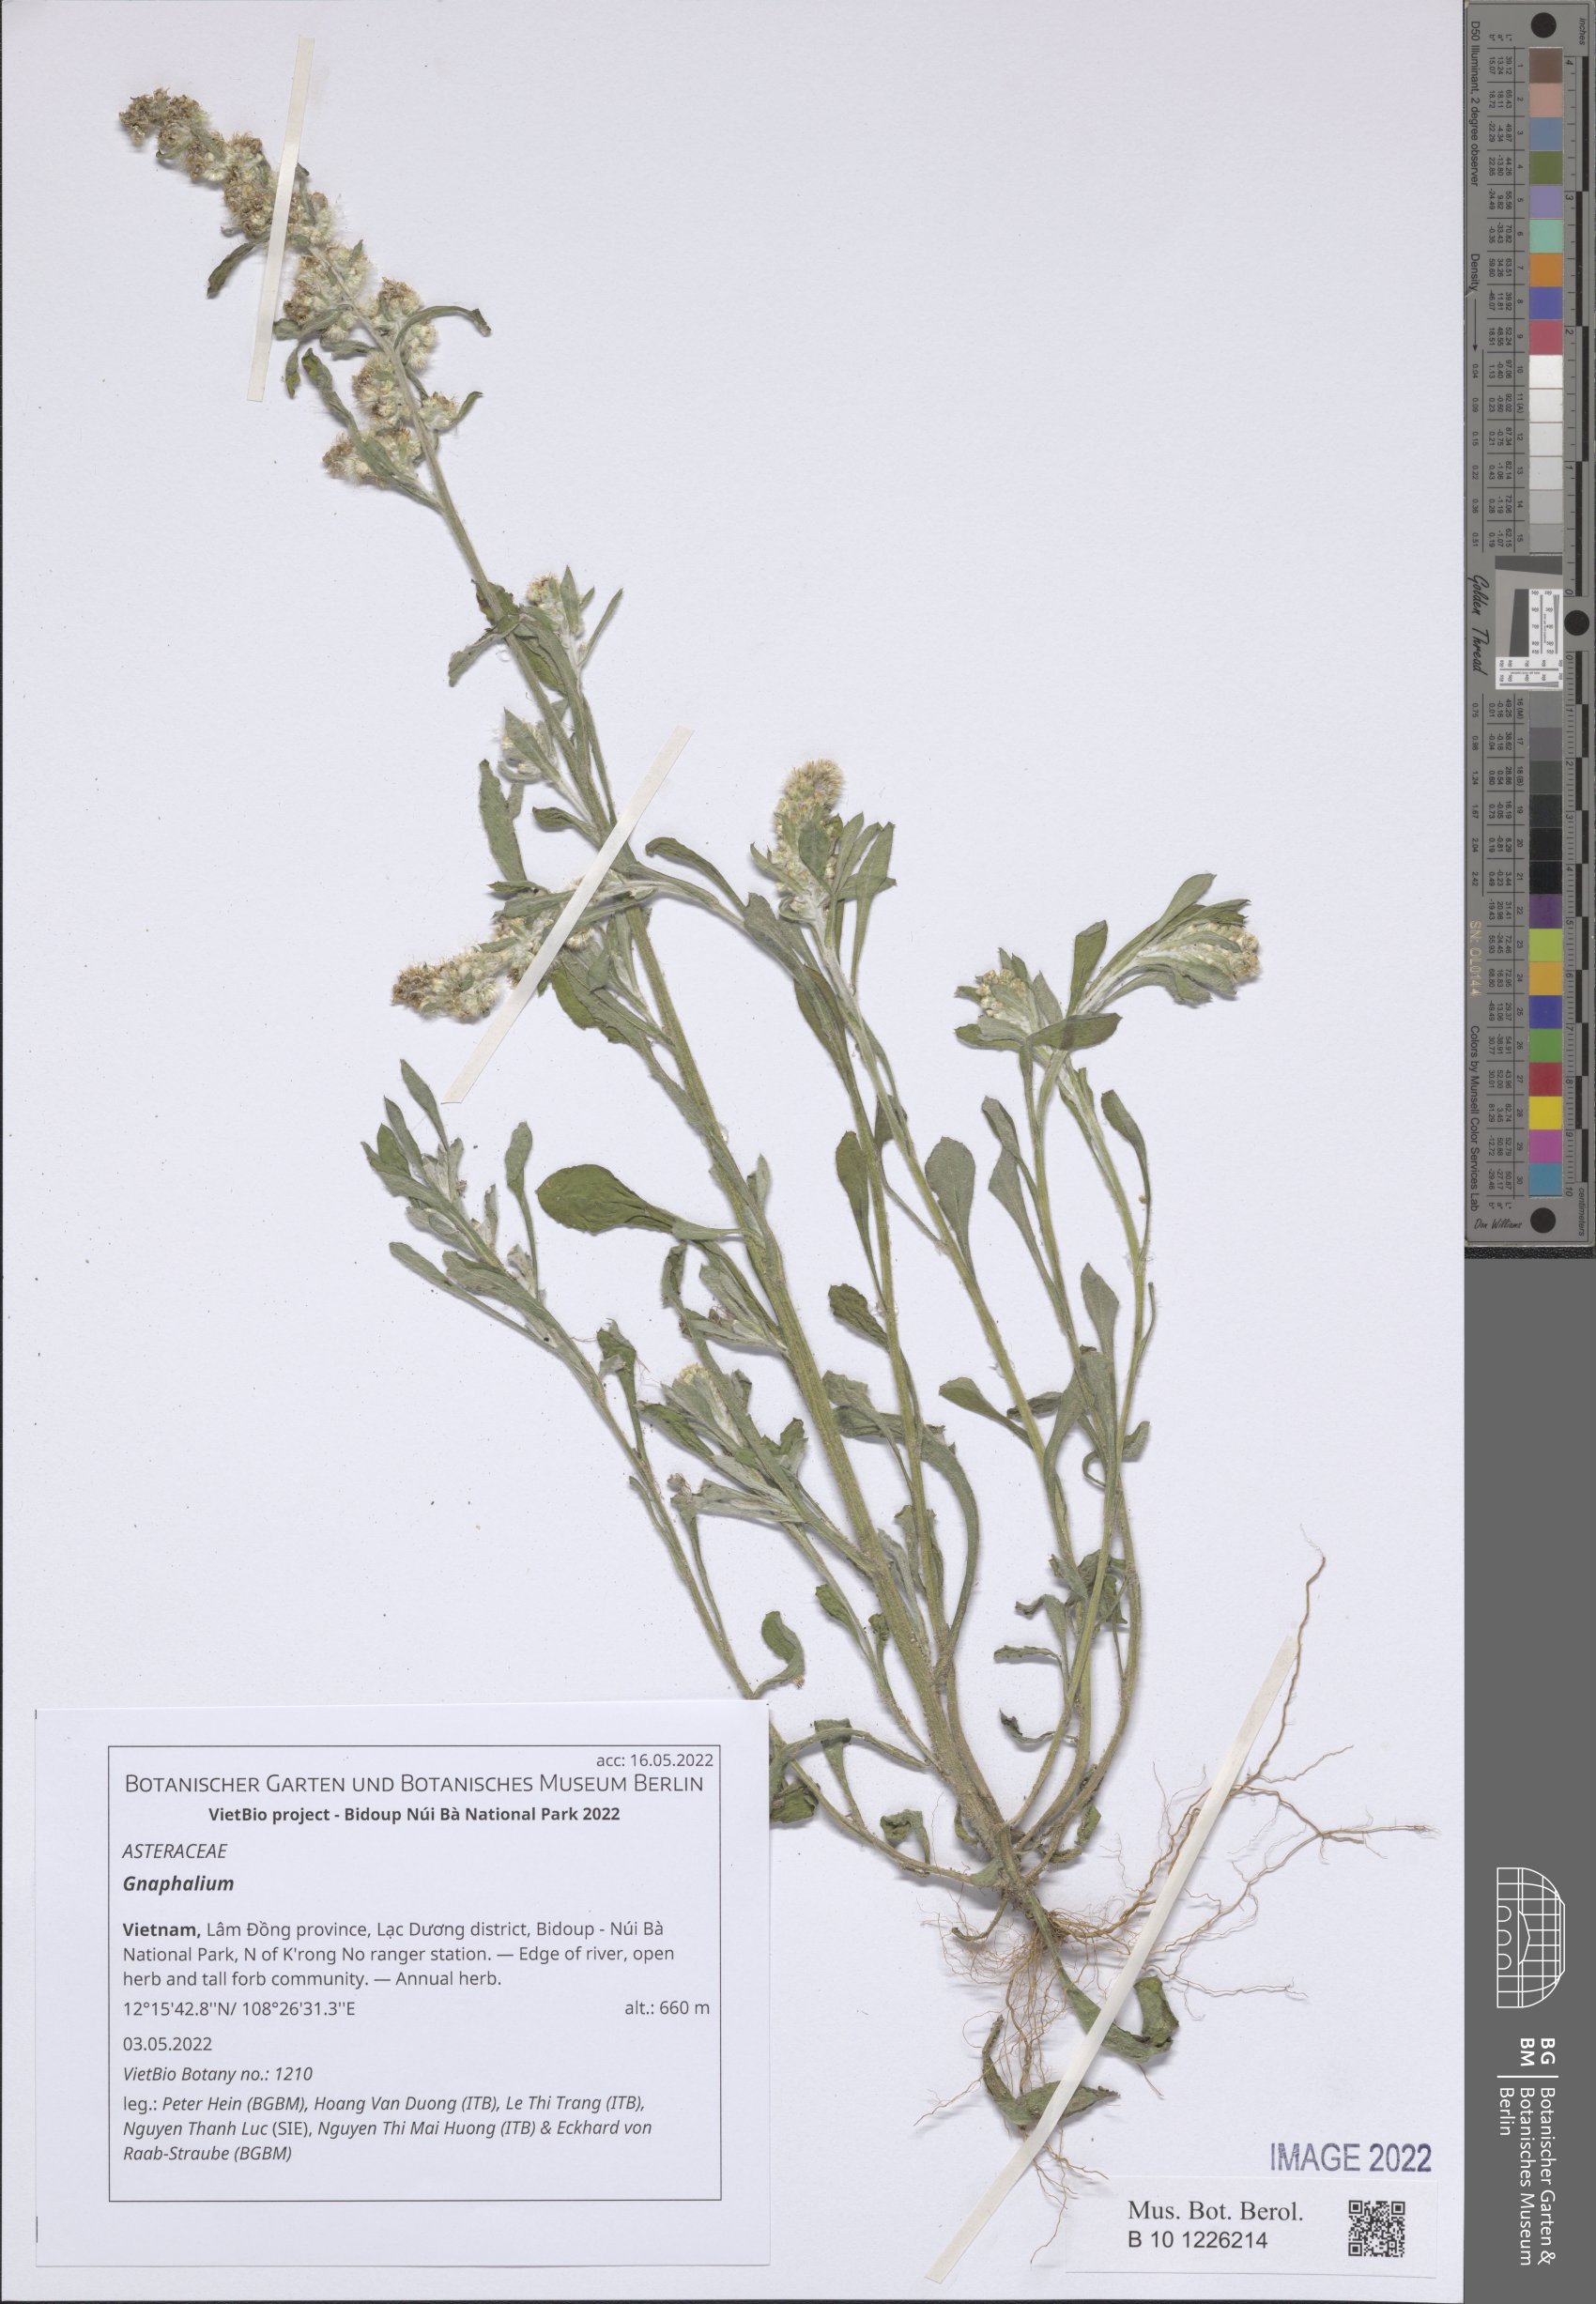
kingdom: Plantae
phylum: Tracheophyta
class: Magnoliopsida
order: Asterales
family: Asteraceae
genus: Gnaphalium
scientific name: Gnaphalium
